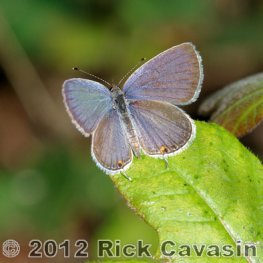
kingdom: Animalia
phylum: Arthropoda
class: Insecta
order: Lepidoptera
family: Lycaenidae
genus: Elkalyce
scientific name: Elkalyce comyntas
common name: Eastern Tailed-Blue
